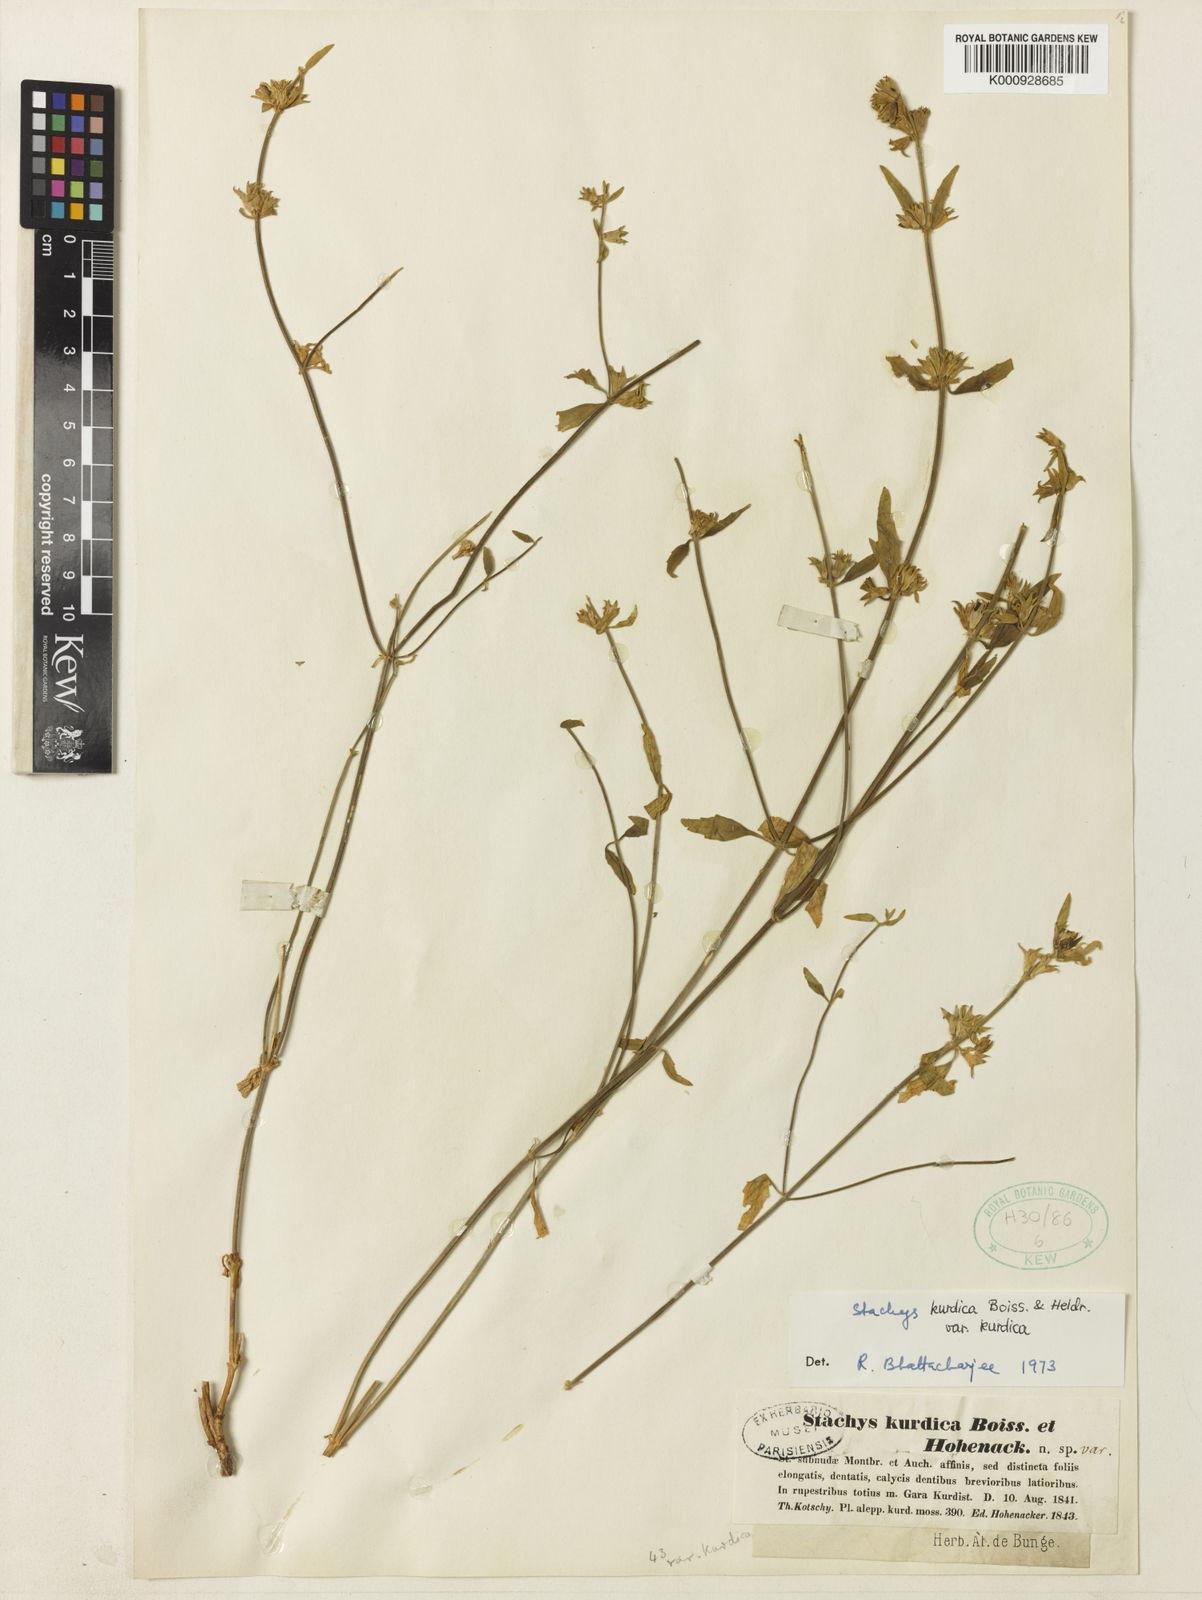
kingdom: Plantae
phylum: Tracheophyta
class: Magnoliopsida
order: Lamiales
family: Lamiaceae
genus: Stachys
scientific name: Stachys kurdica
